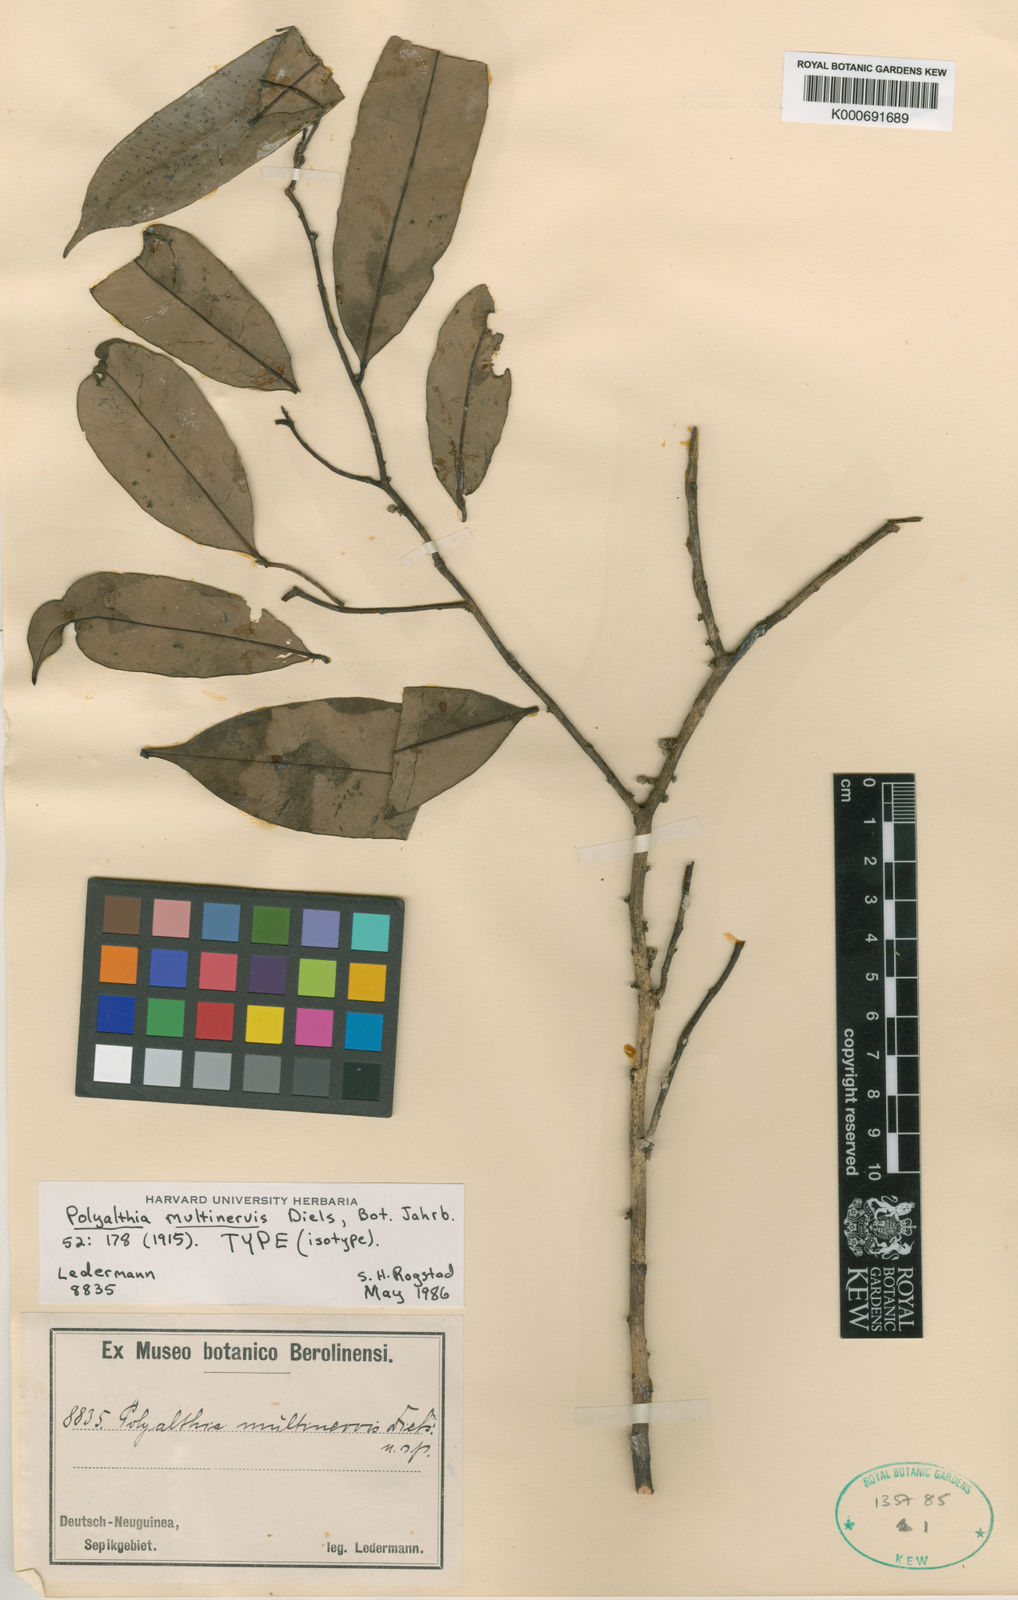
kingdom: Plantae
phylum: Tracheophyta
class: Magnoliopsida
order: Magnoliales
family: Annonaceae
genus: Maasia
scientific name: Maasia multinervis
